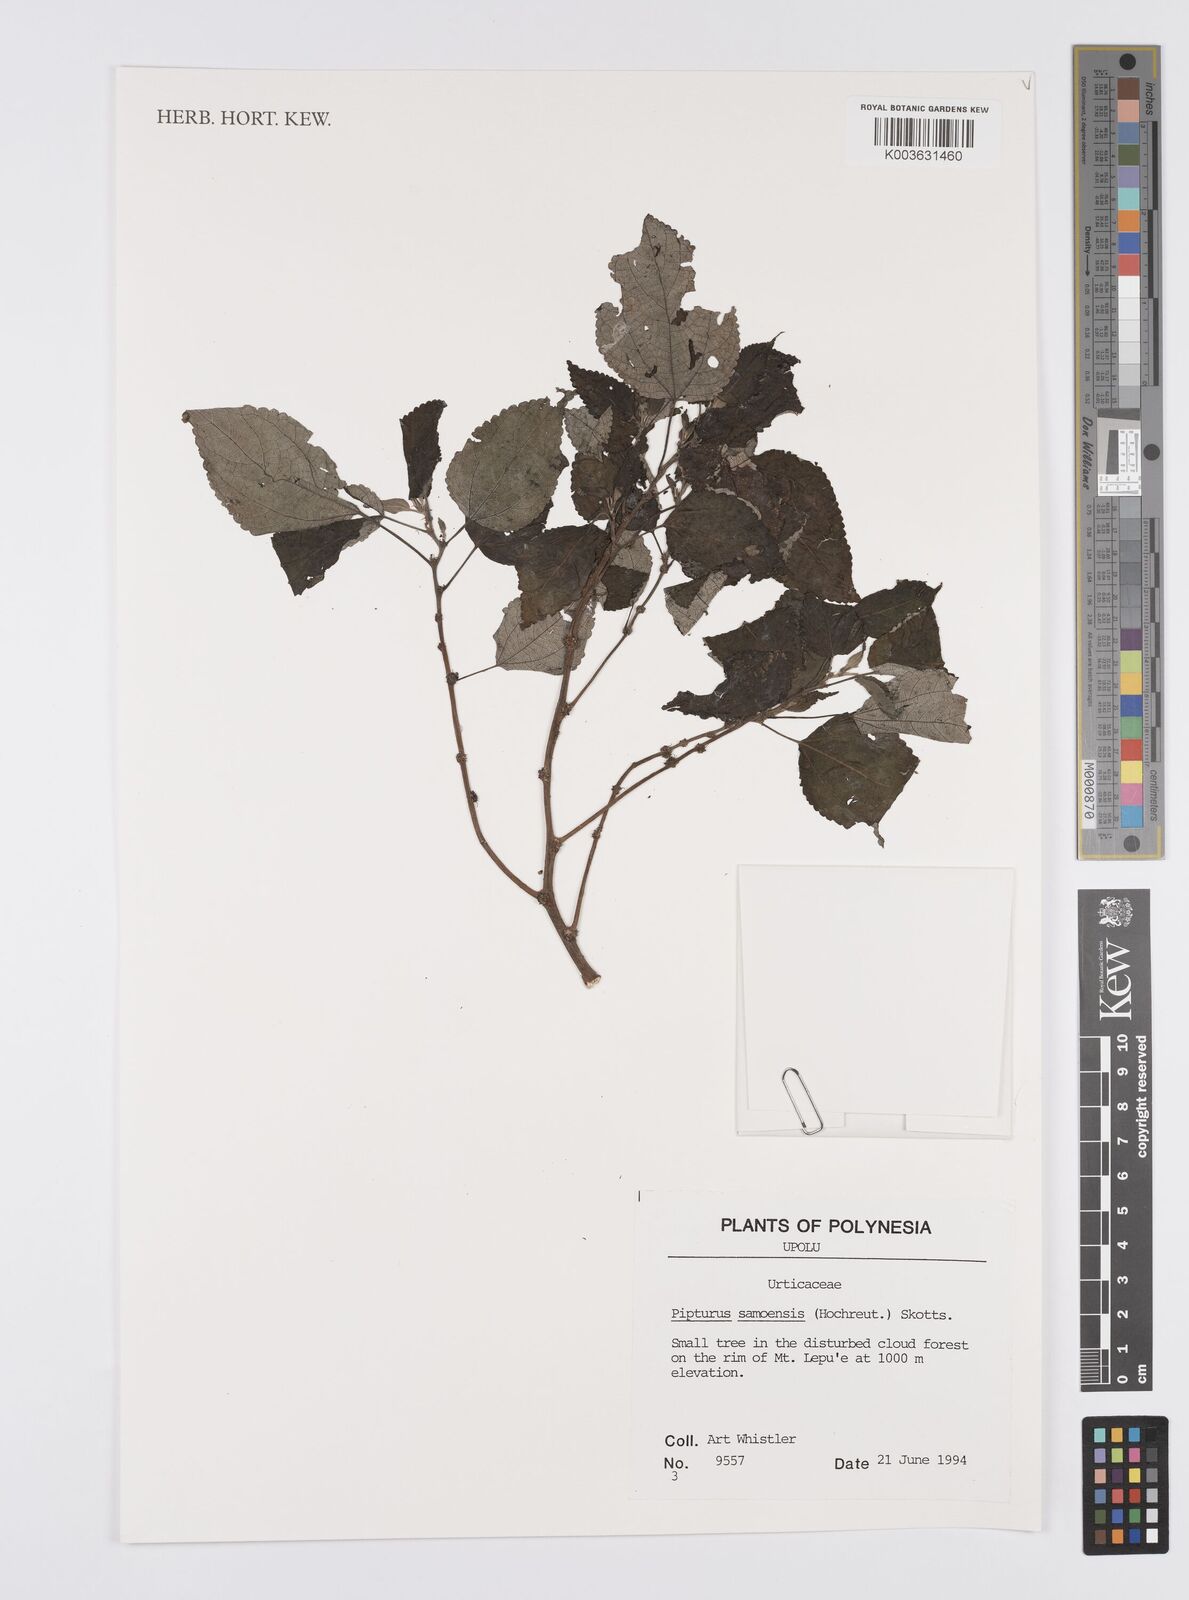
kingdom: Plantae
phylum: Tracheophyta
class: Magnoliopsida
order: Rosales
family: Urticaceae
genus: Pipturus
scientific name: Pipturus argenteus
